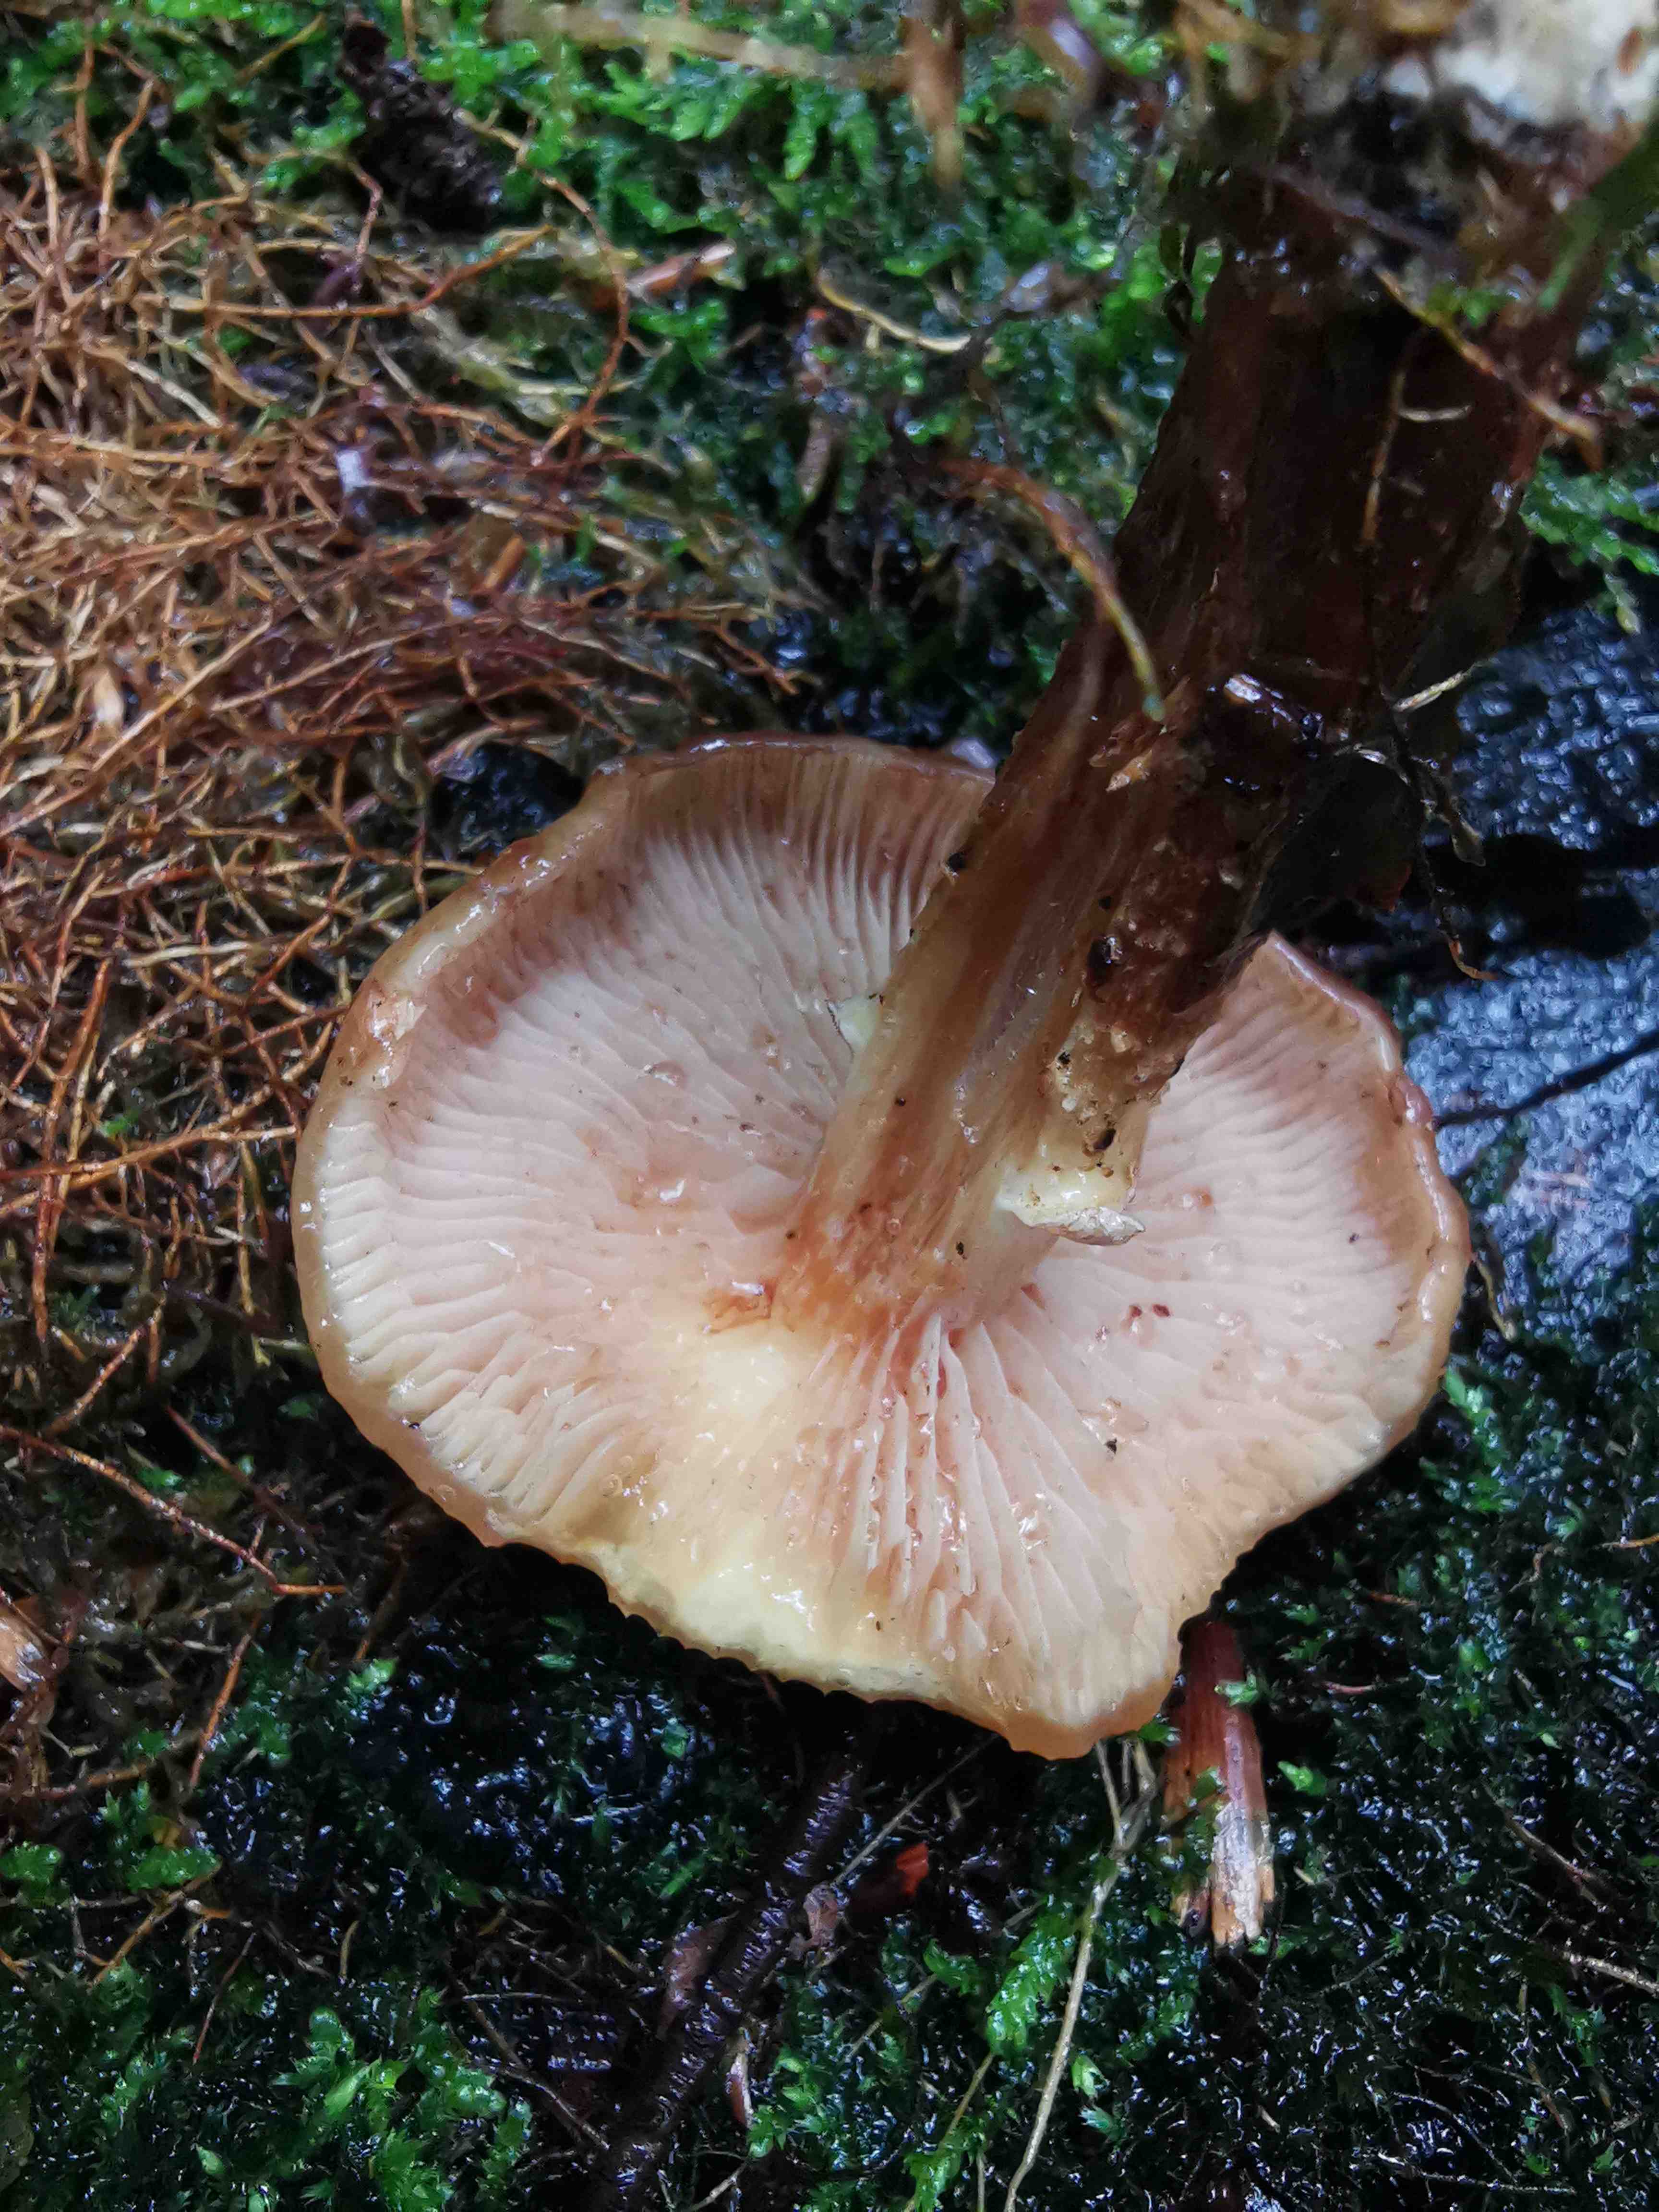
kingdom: Fungi
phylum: Basidiomycota
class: Agaricomycetes
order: Agaricales
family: Strophariaceae
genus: Kuehneromyces
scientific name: Kuehneromyces mutabilis
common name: foranderlig skælhat
